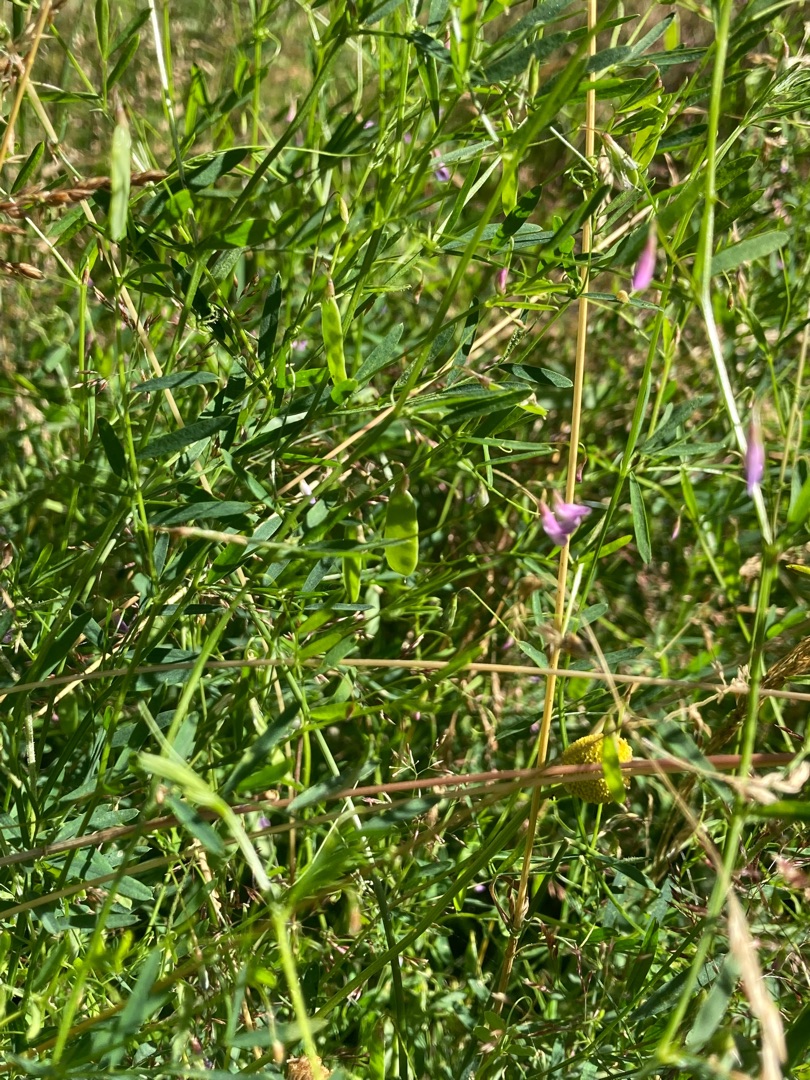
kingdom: Plantae
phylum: Tracheophyta
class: Magnoliopsida
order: Fabales
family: Fabaceae
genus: Vicia
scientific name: Vicia tetrasperma
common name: Tadder-vikke
